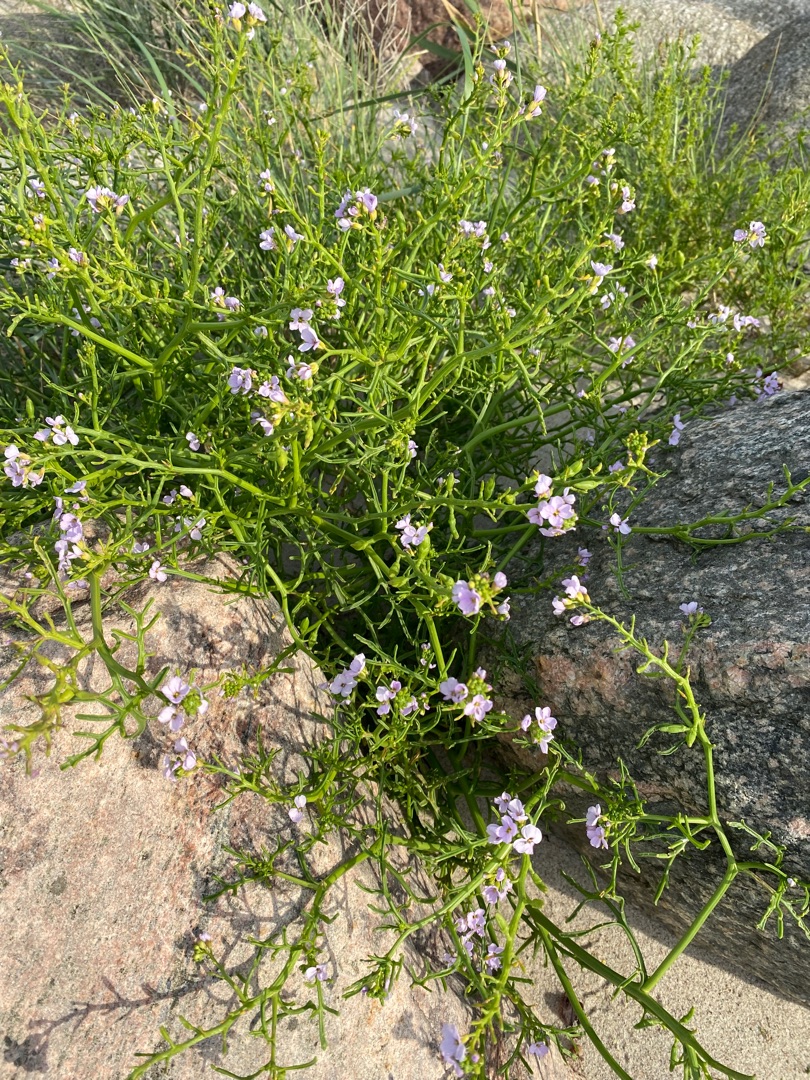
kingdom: Plantae
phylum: Tracheophyta
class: Magnoliopsida
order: Brassicales
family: Brassicaceae
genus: Cakile
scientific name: Cakile maritima
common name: Strandsennep
